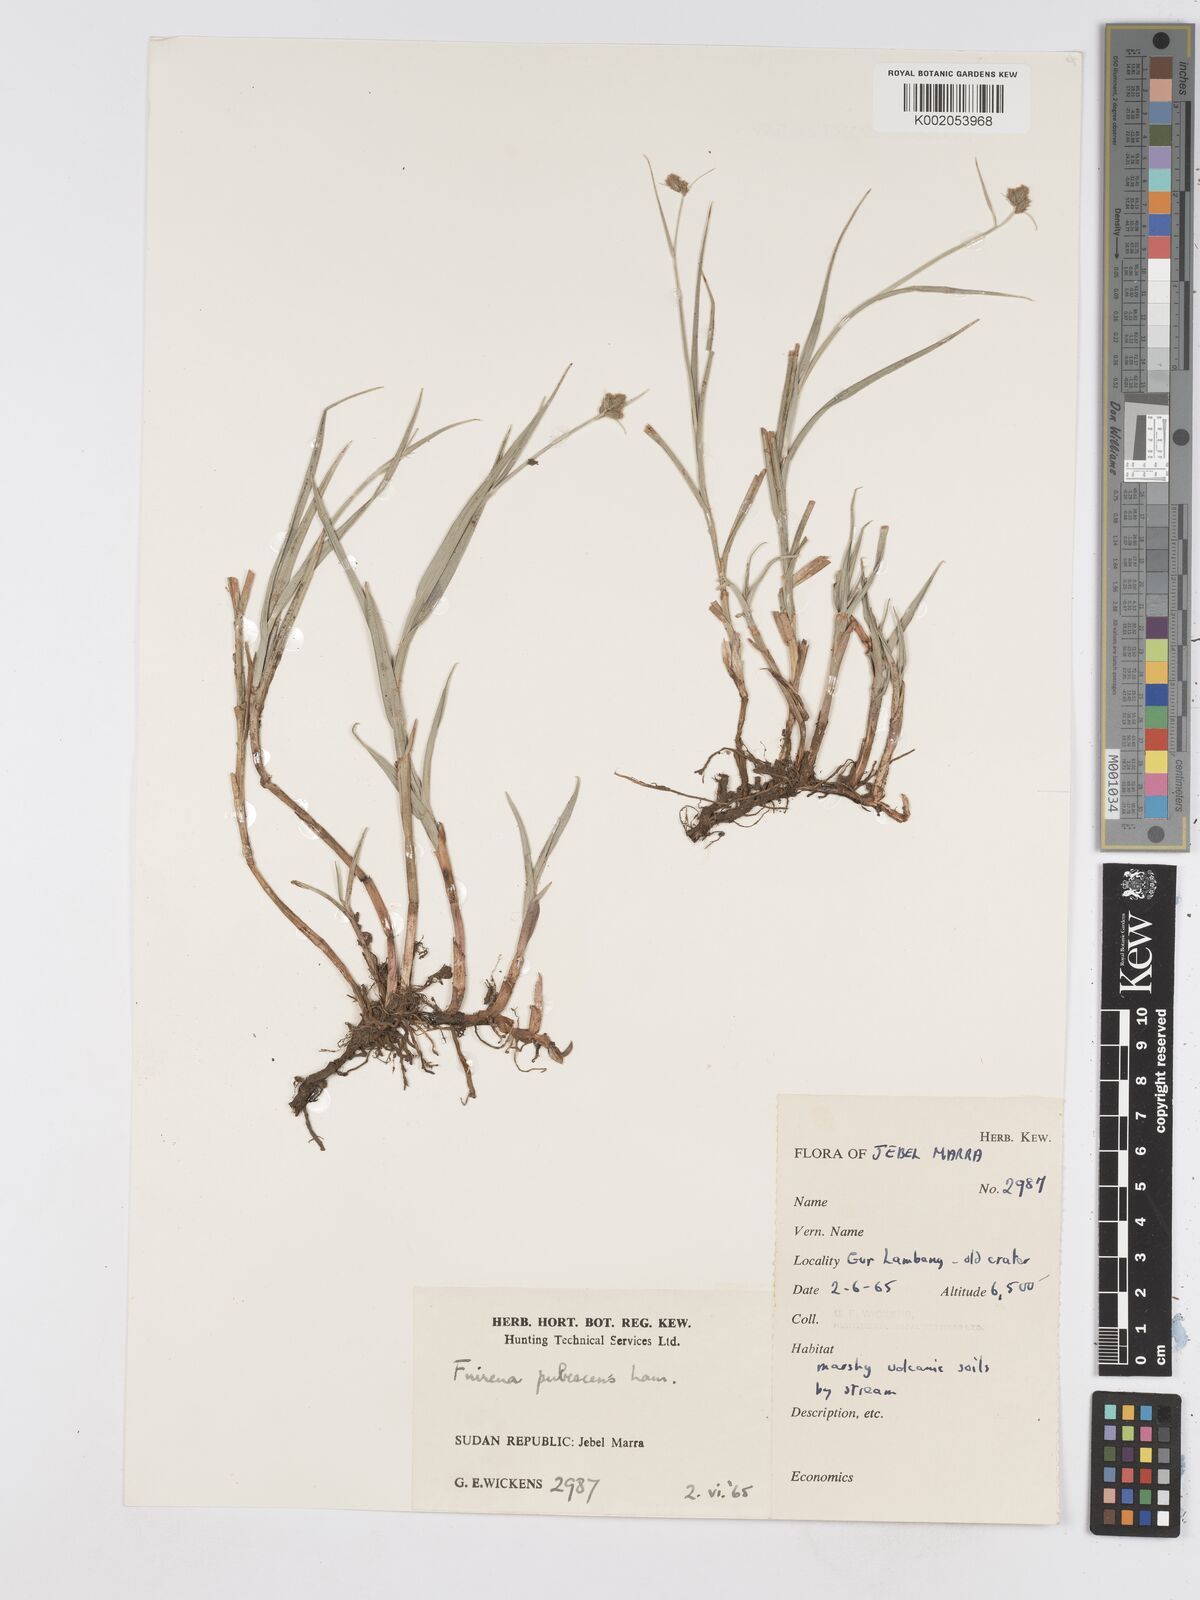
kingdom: Plantae
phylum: Tracheophyta
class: Liliopsida
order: Poales
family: Cyperaceae
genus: Fuirena
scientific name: Fuirena pubescens
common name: Hairy sedge
